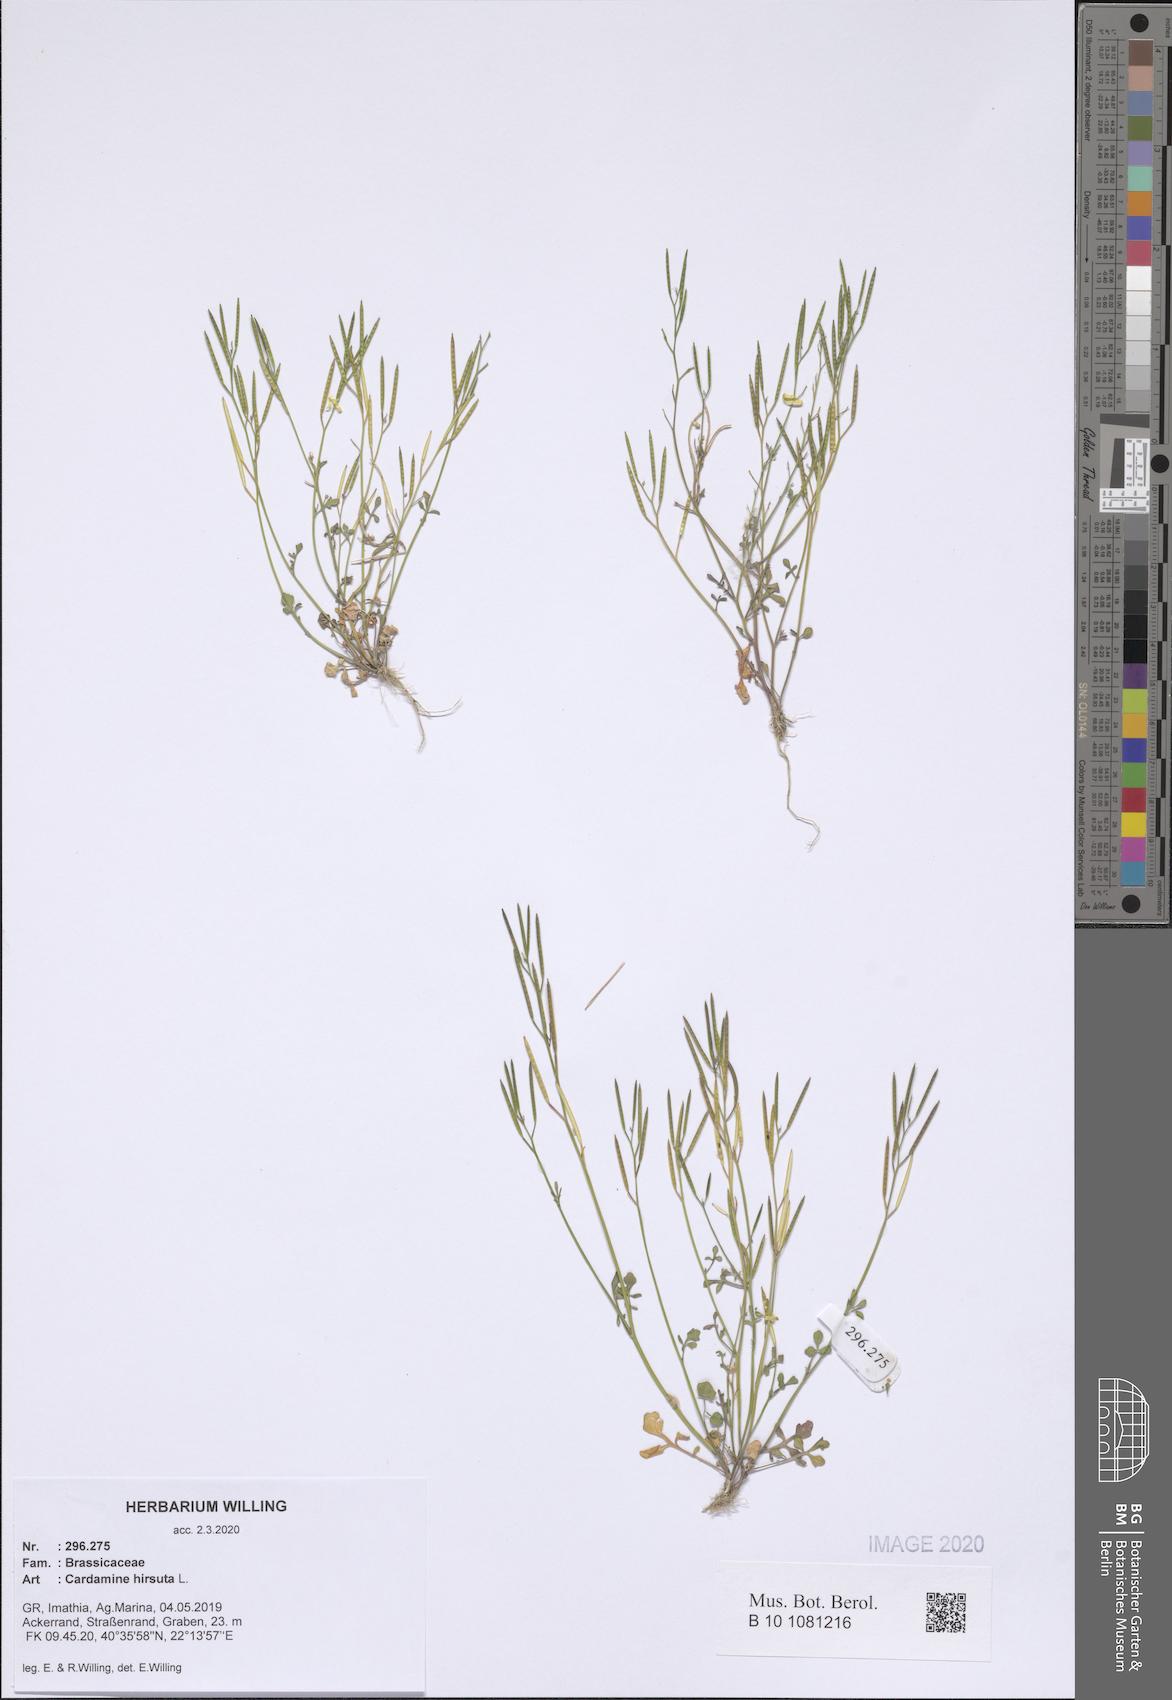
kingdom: Plantae
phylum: Tracheophyta
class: Magnoliopsida
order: Brassicales
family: Brassicaceae
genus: Cardamine
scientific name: Cardamine hirsuta
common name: Hairy bittercress
